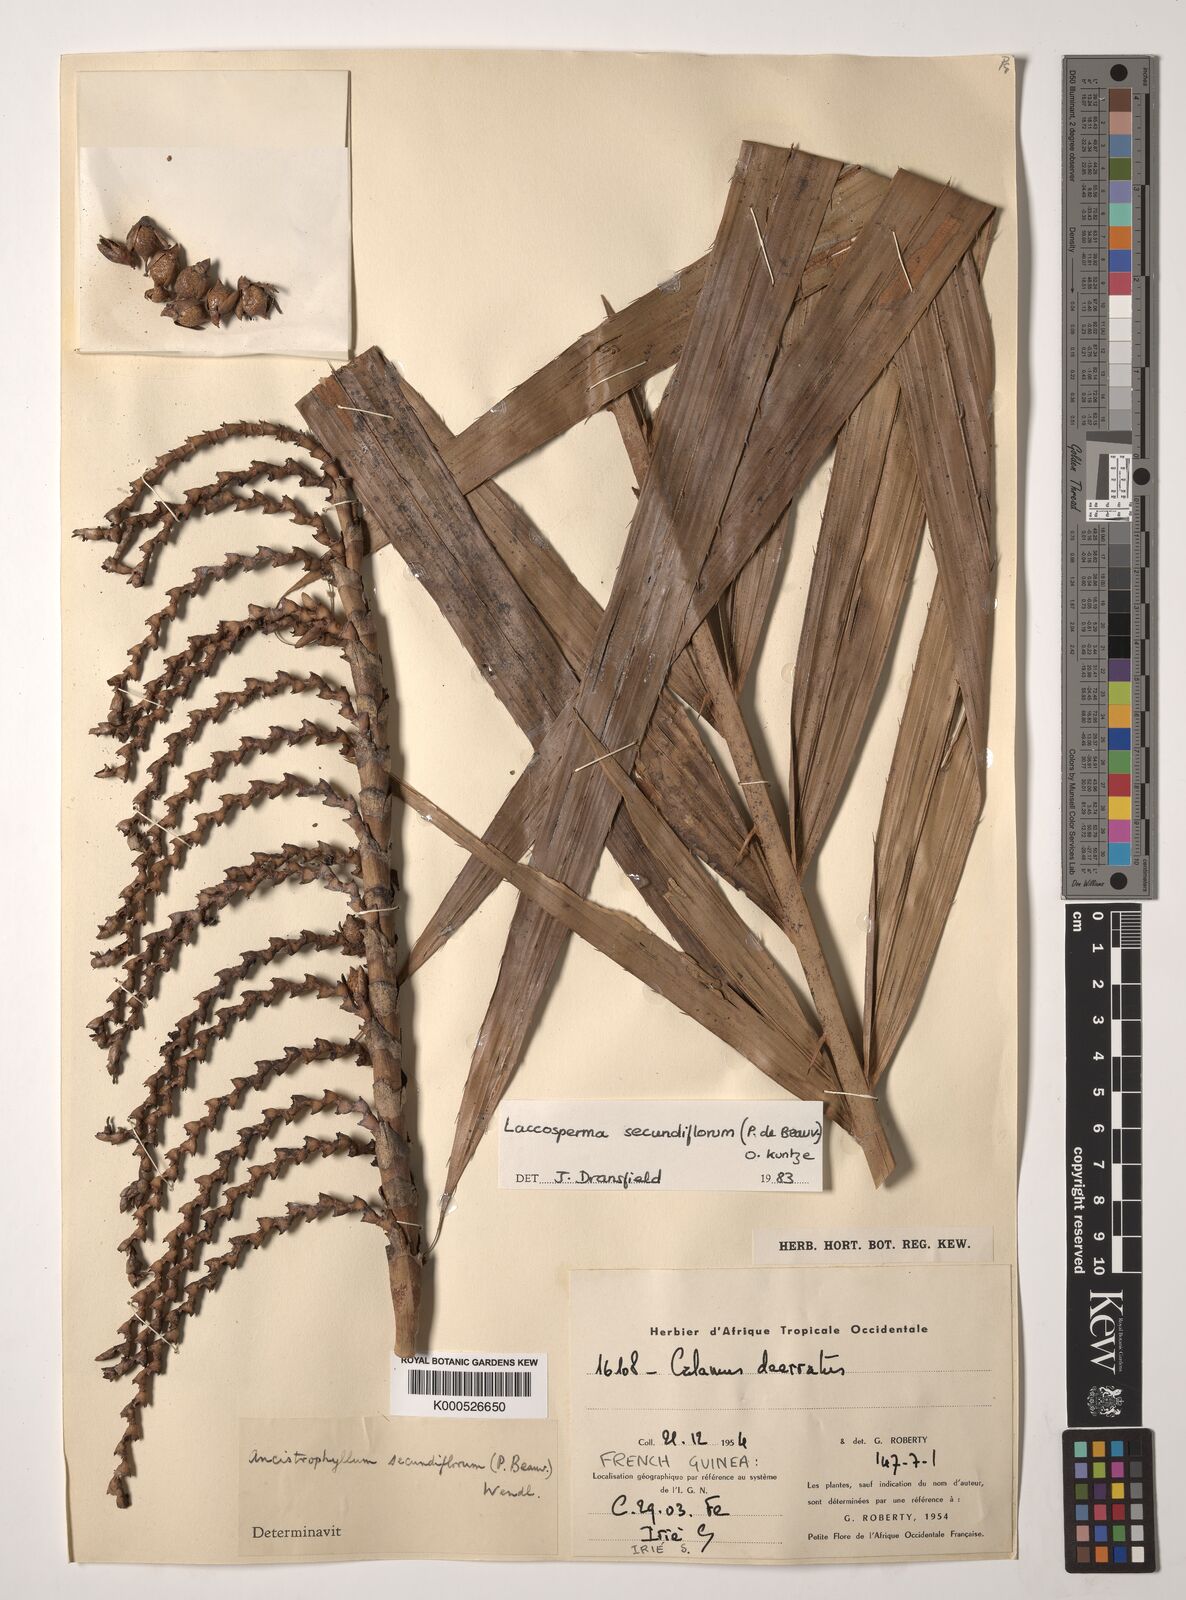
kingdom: Plantae
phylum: Tracheophyta
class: Liliopsida
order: Arecales
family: Arecaceae
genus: Laccosperma
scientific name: Laccosperma secundiflorum
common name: Rattan
